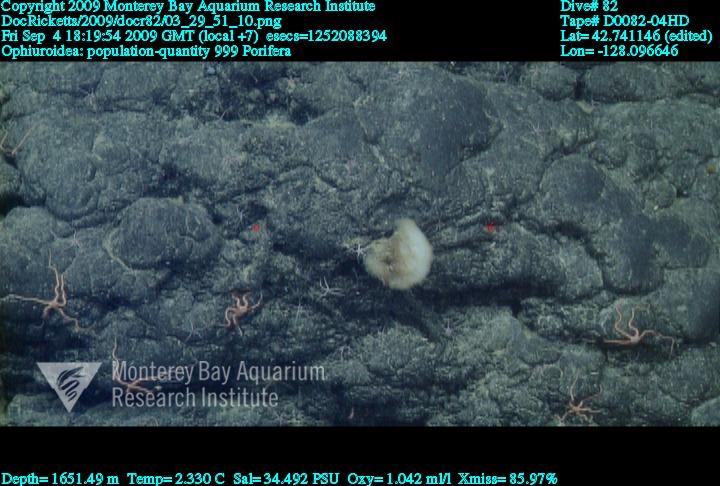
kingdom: Animalia
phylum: Porifera
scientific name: Porifera
